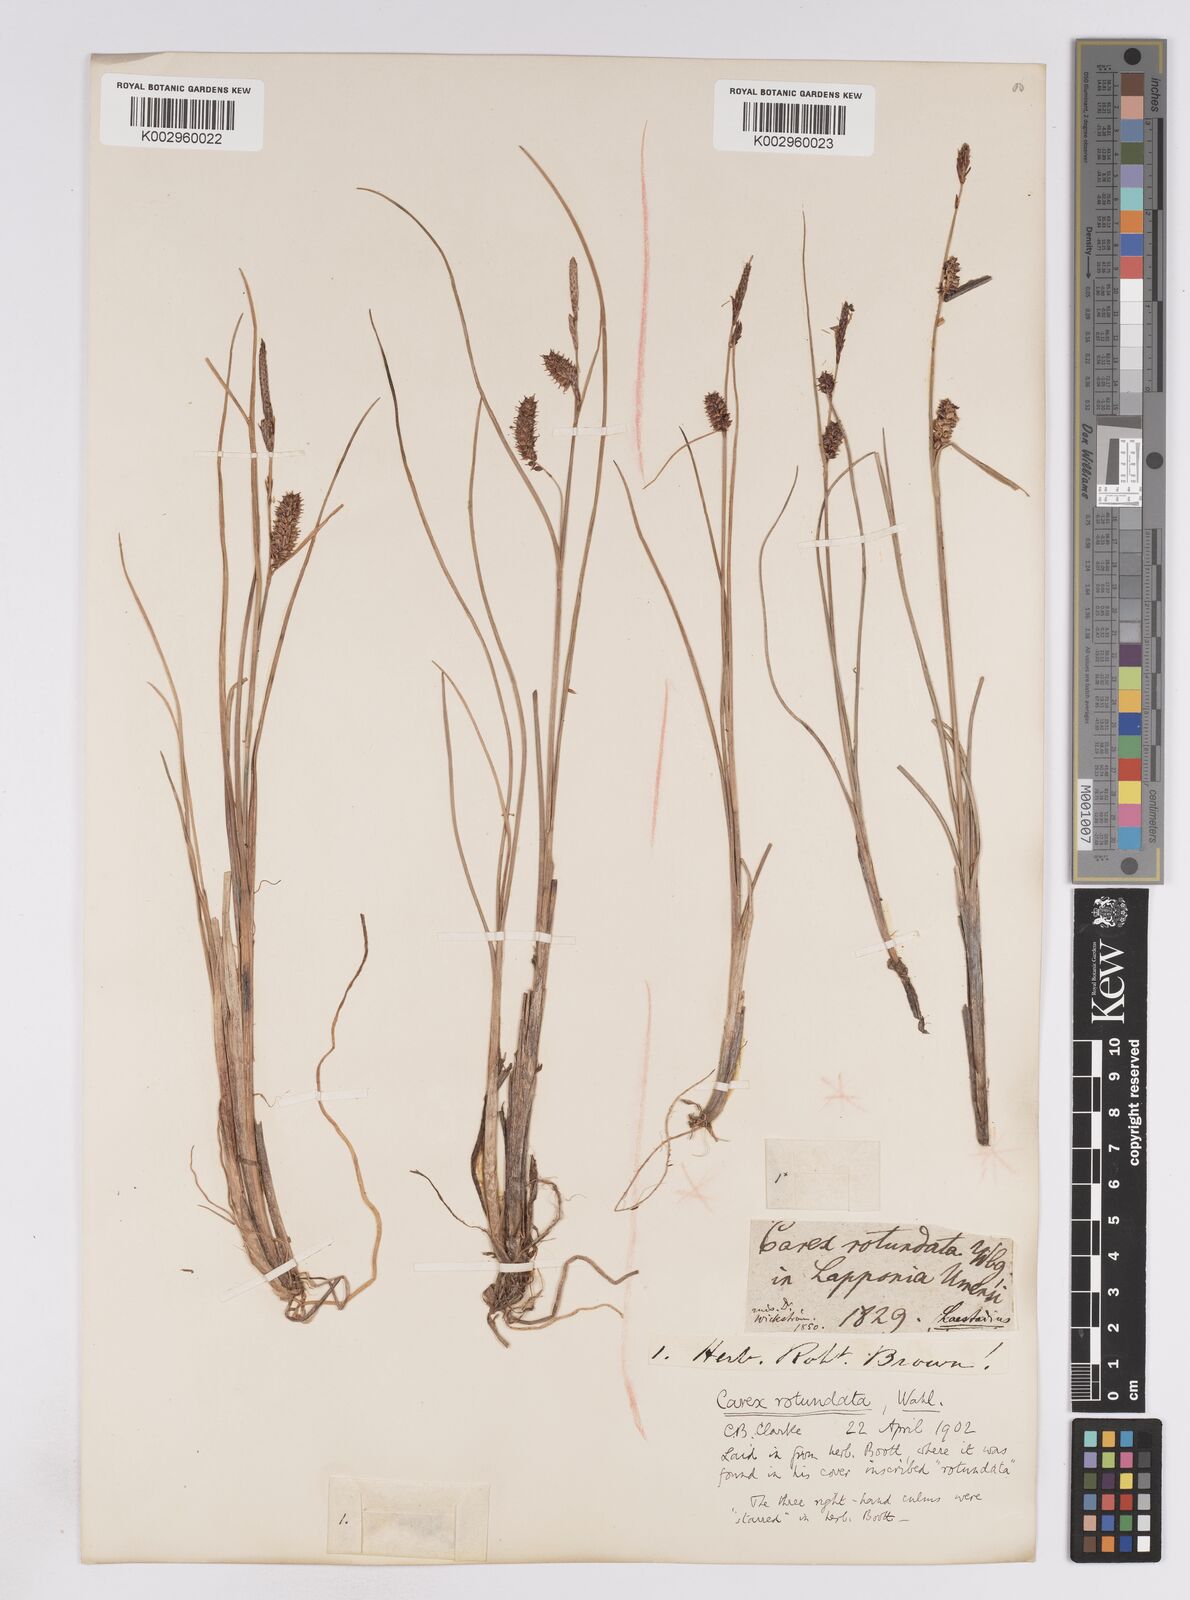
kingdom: Plantae
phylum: Tracheophyta
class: Liliopsida
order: Poales
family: Cyperaceae
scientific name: Cyperaceae
